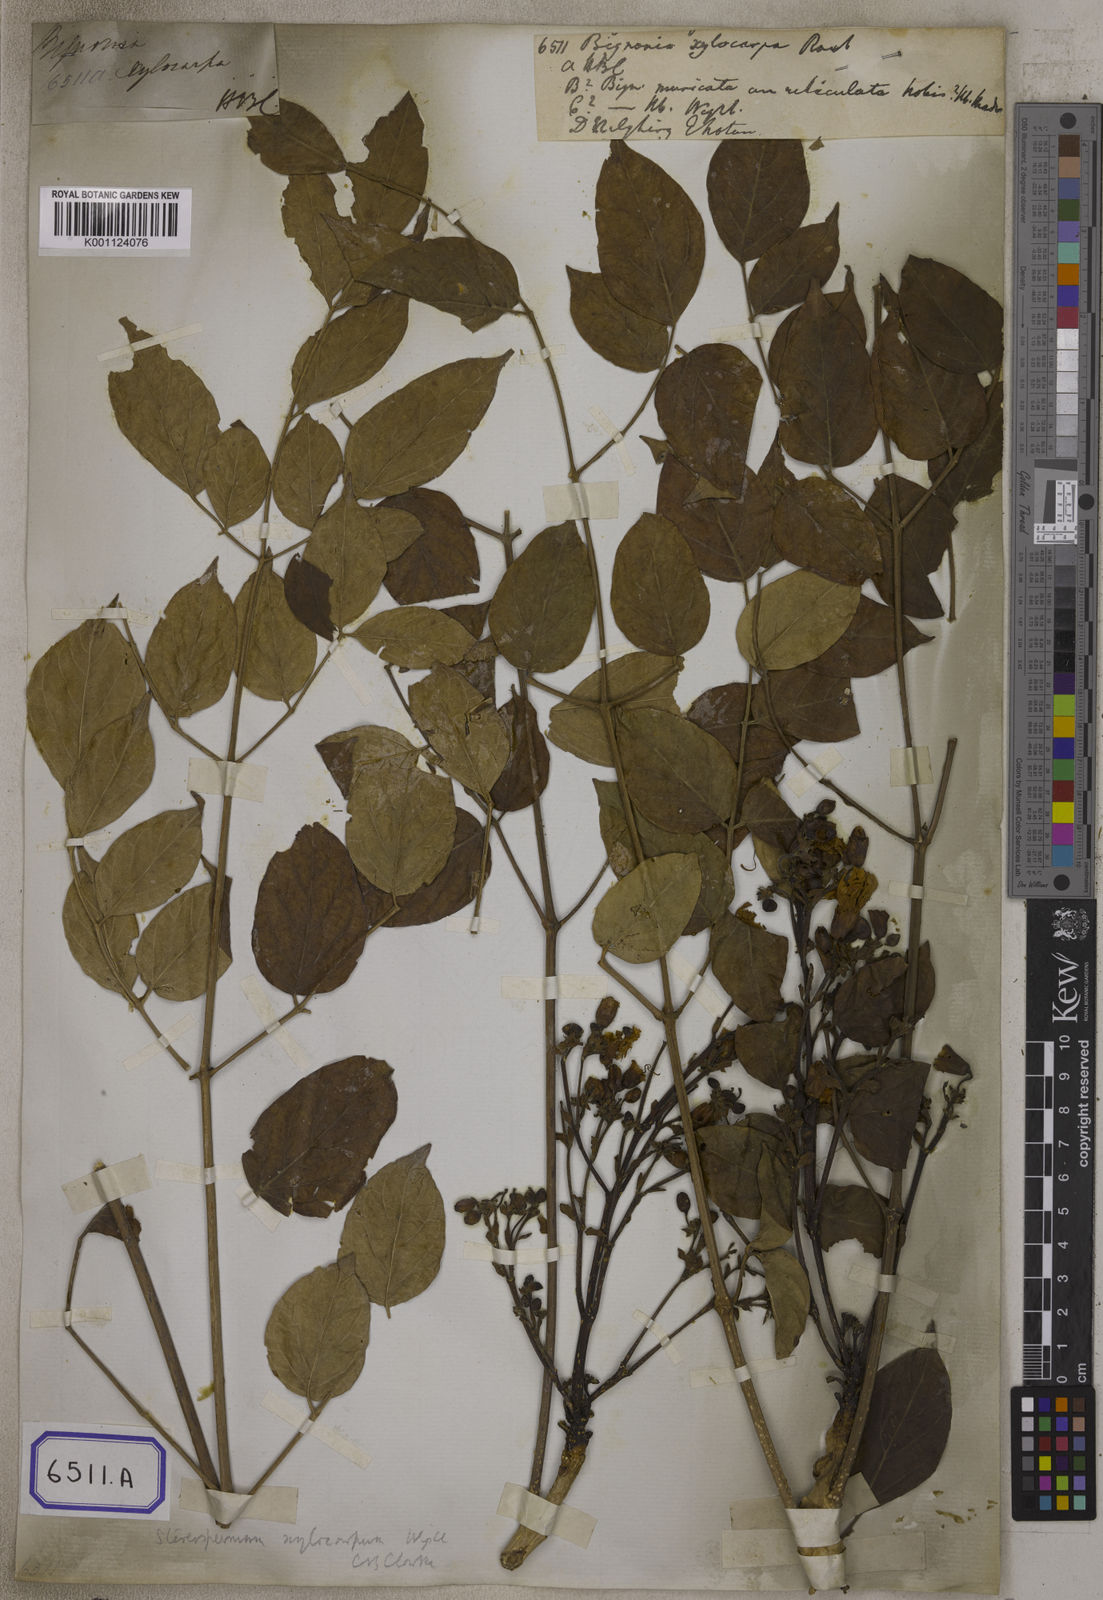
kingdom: Plantae
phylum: Tracheophyta
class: Magnoliopsida
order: Lamiales
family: Bignoniaceae
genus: Radermachera
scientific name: Radermachera xylocarpa
